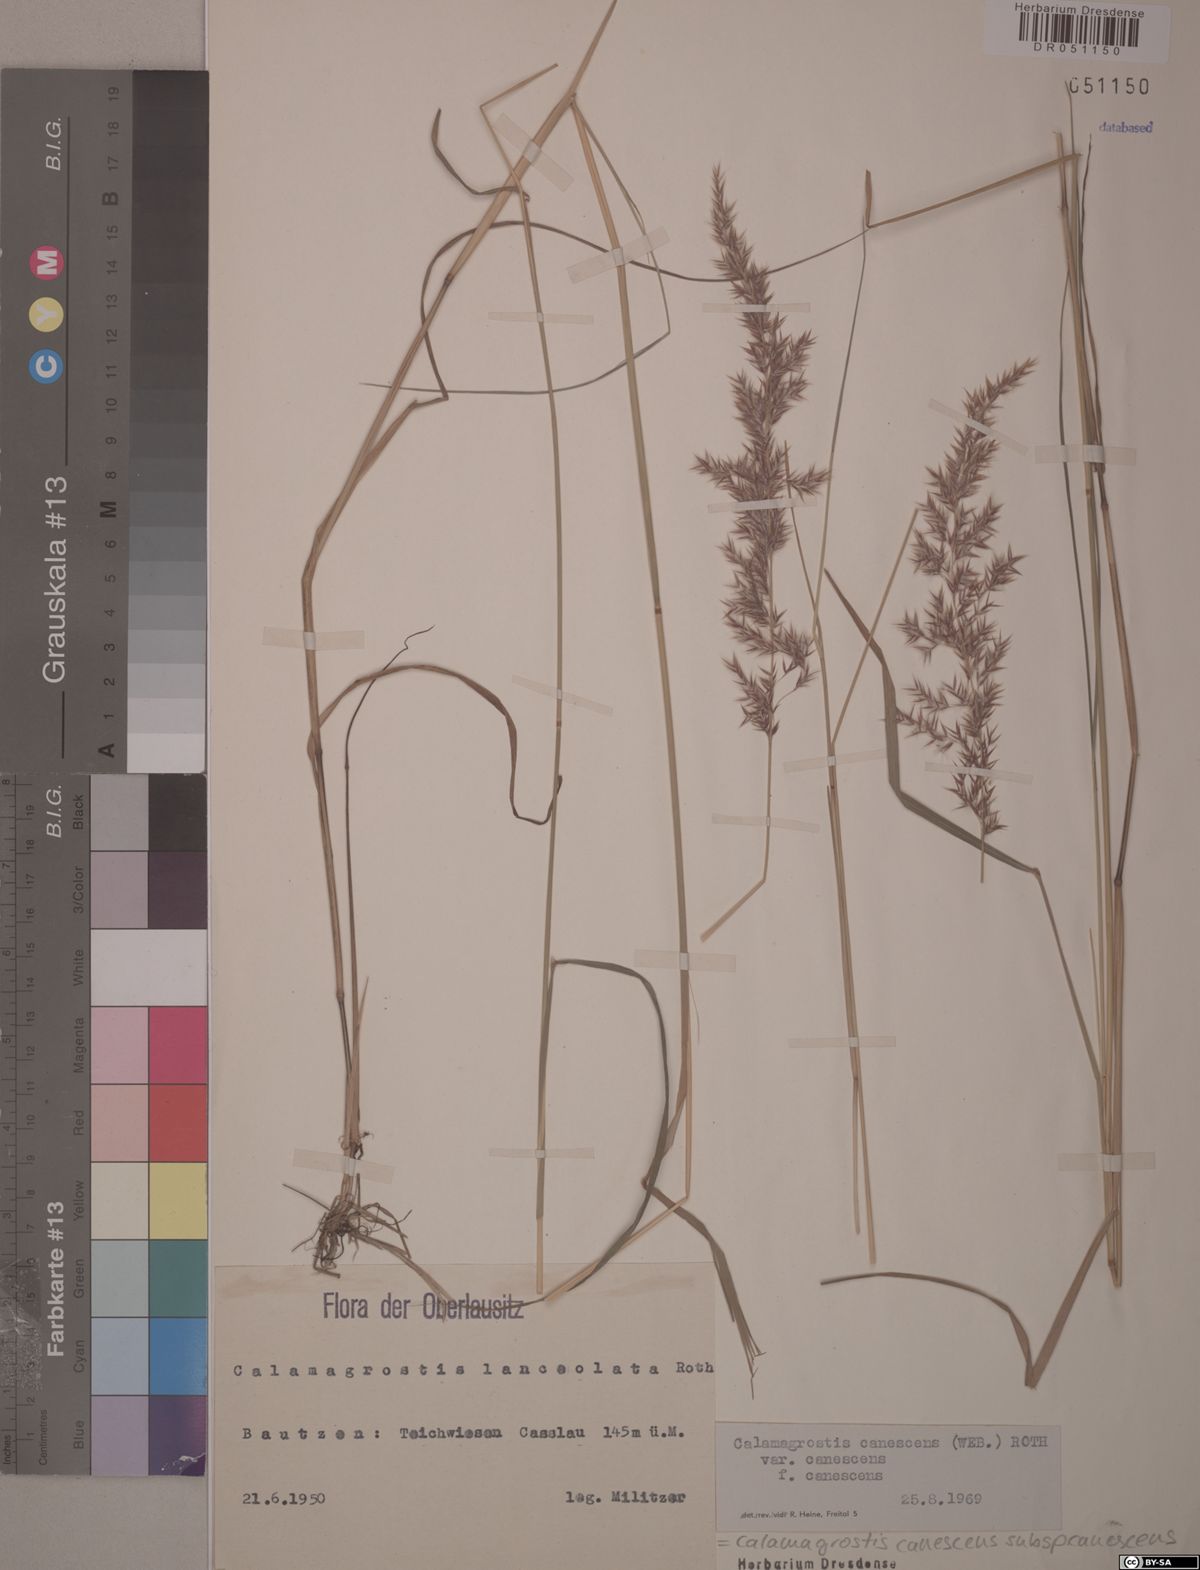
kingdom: Plantae
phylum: Tracheophyta
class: Liliopsida
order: Poales
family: Poaceae
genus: Calamagrostis
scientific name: Calamagrostis canescens
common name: Purple small-reed
